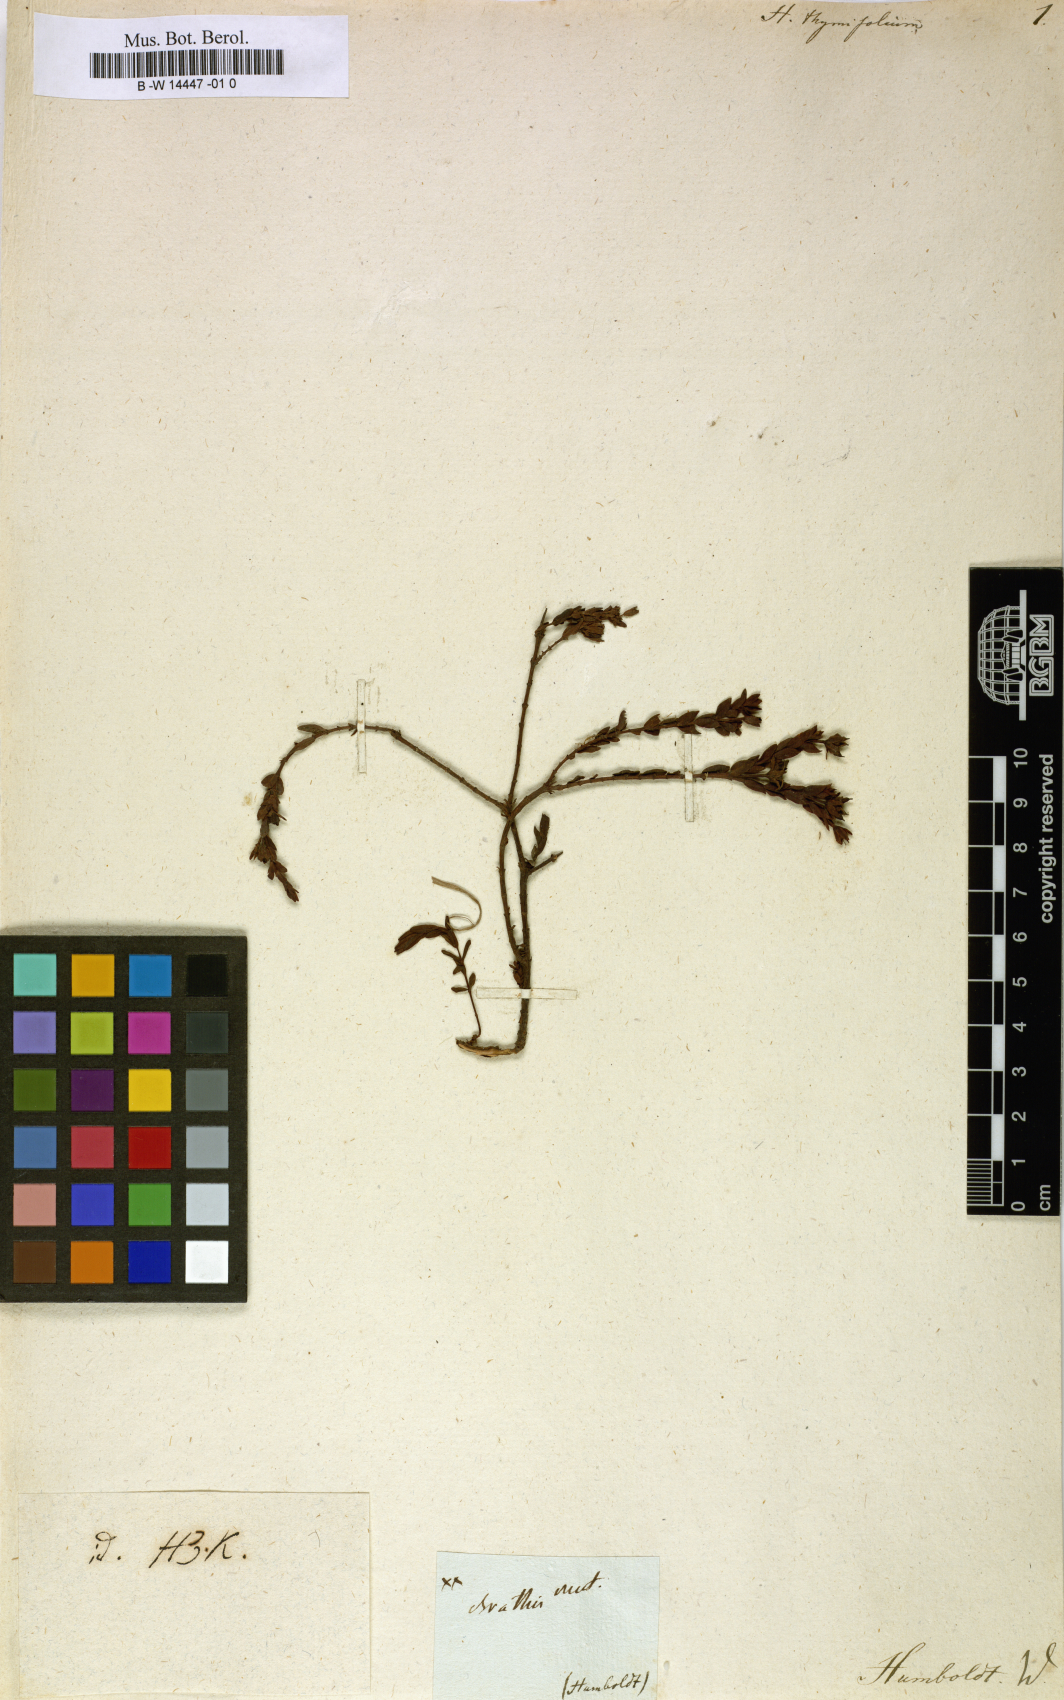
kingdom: Plantae
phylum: Tracheophyta
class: Magnoliopsida
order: Malpighiales
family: Hypericaceae
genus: Hypericum
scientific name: Hypericum humboldtianum
